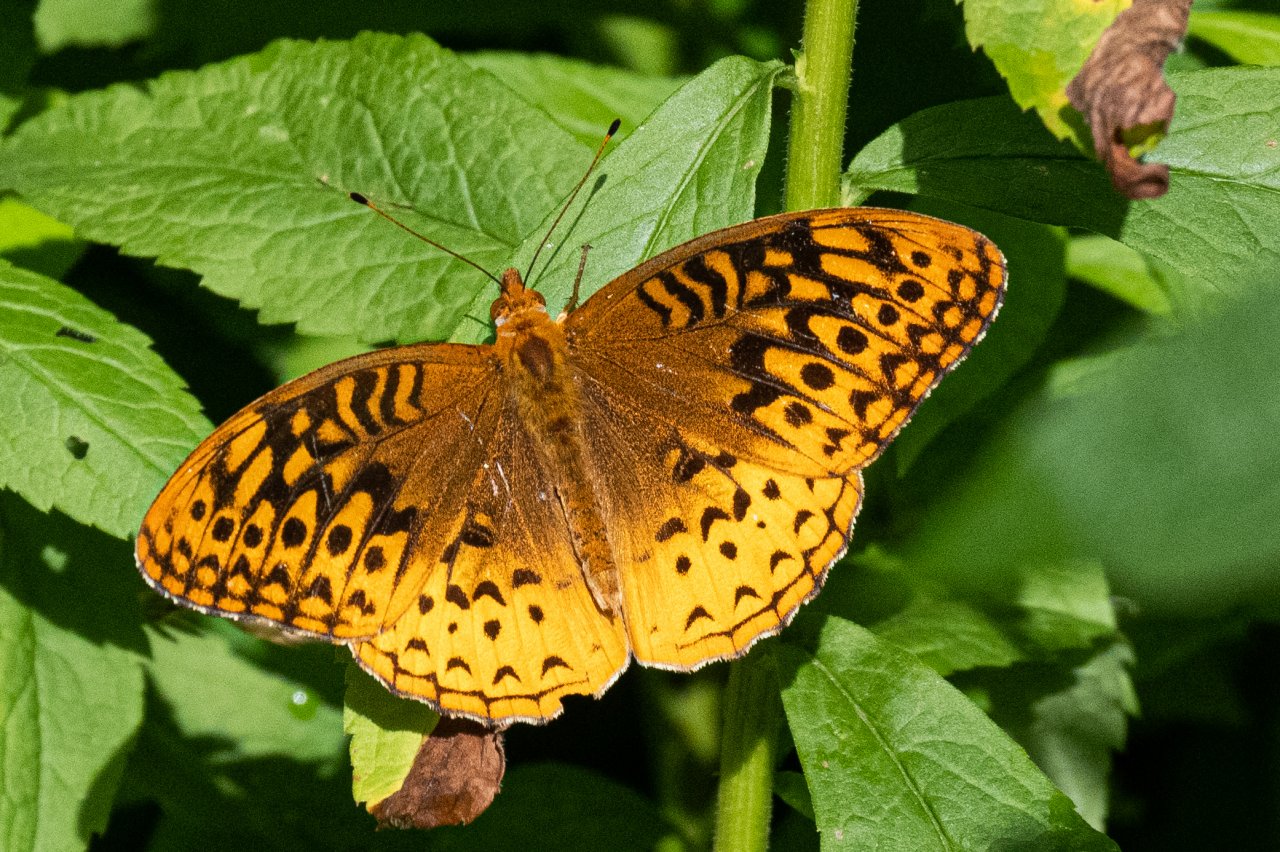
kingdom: Animalia
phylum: Arthropoda
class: Insecta
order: Lepidoptera
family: Nymphalidae
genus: Speyeria
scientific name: Speyeria cybele
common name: Great Spangled Fritillary
